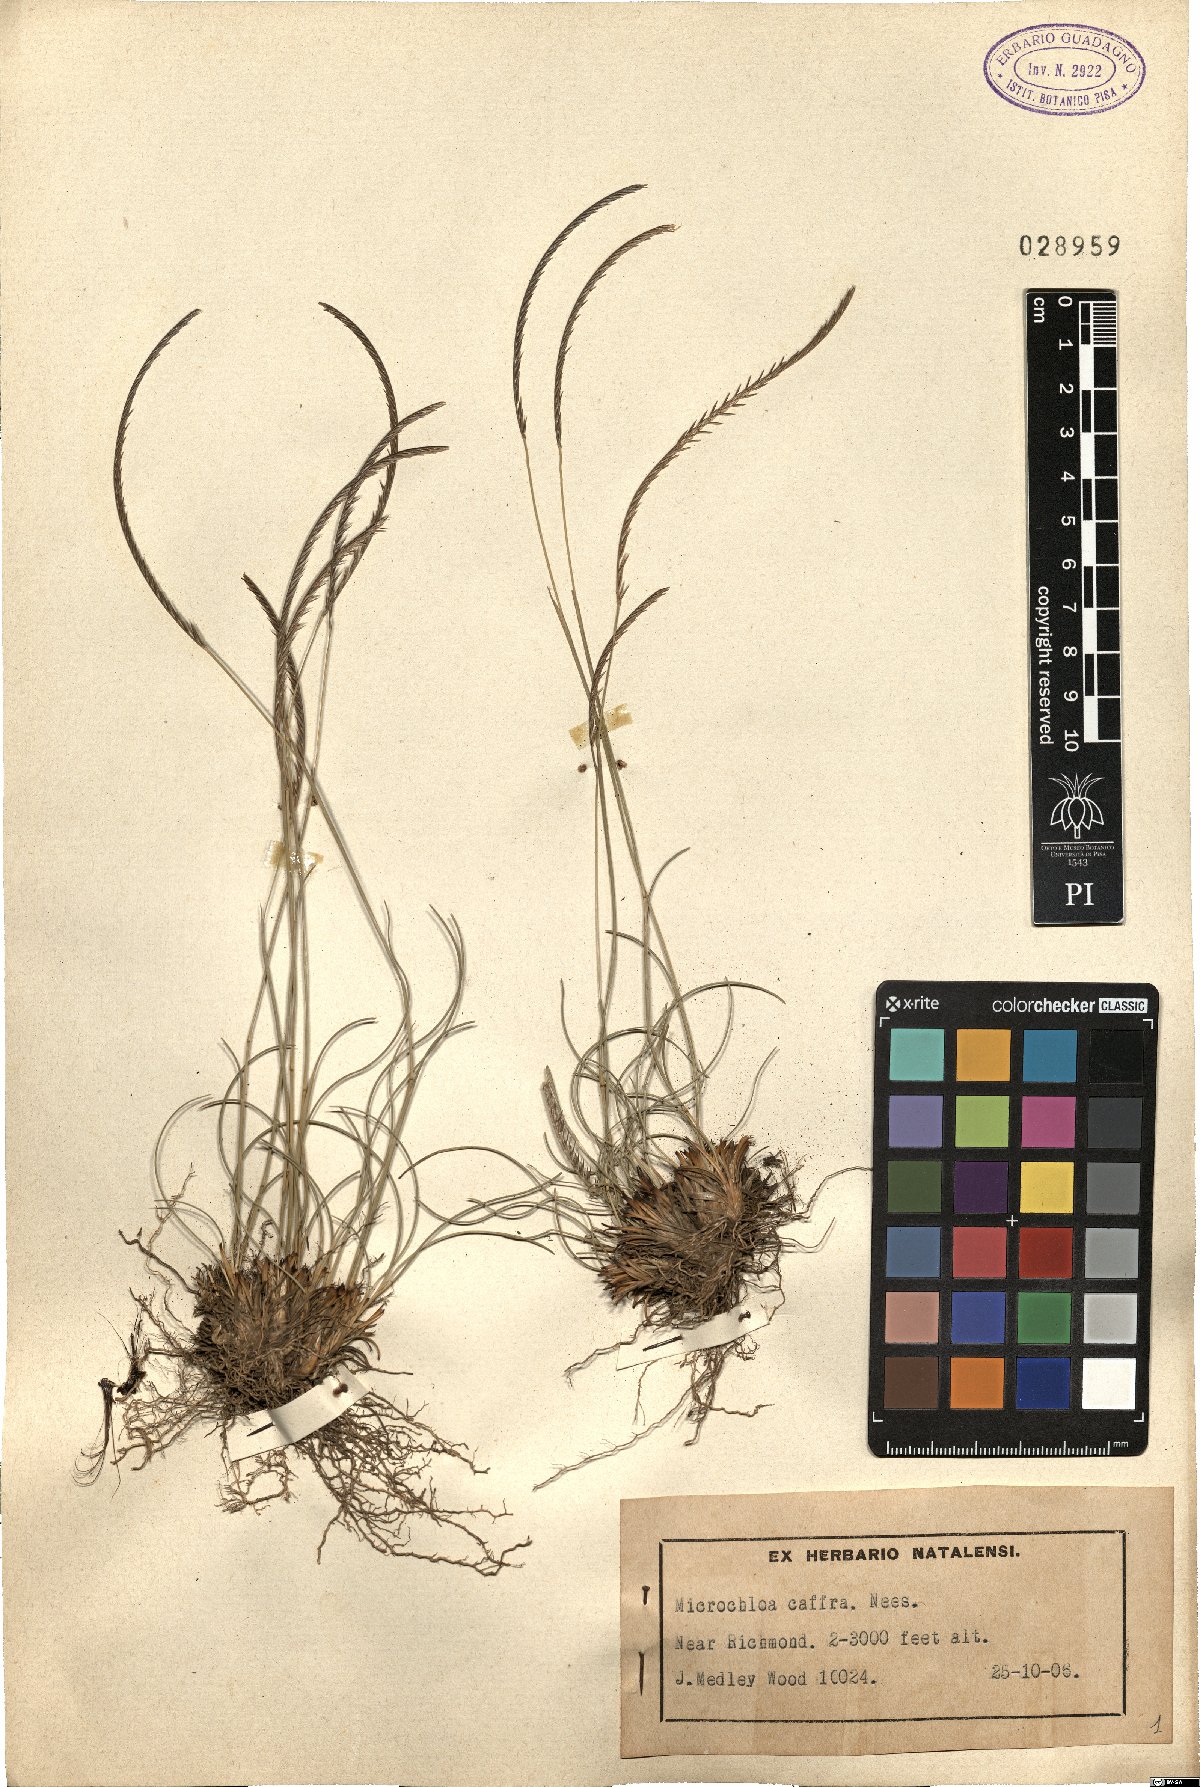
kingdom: Plantae
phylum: Tracheophyta
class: Liliopsida
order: Poales
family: Poaceae
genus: Microchloa
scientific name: Microchloa caffra
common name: Pincushion grass
